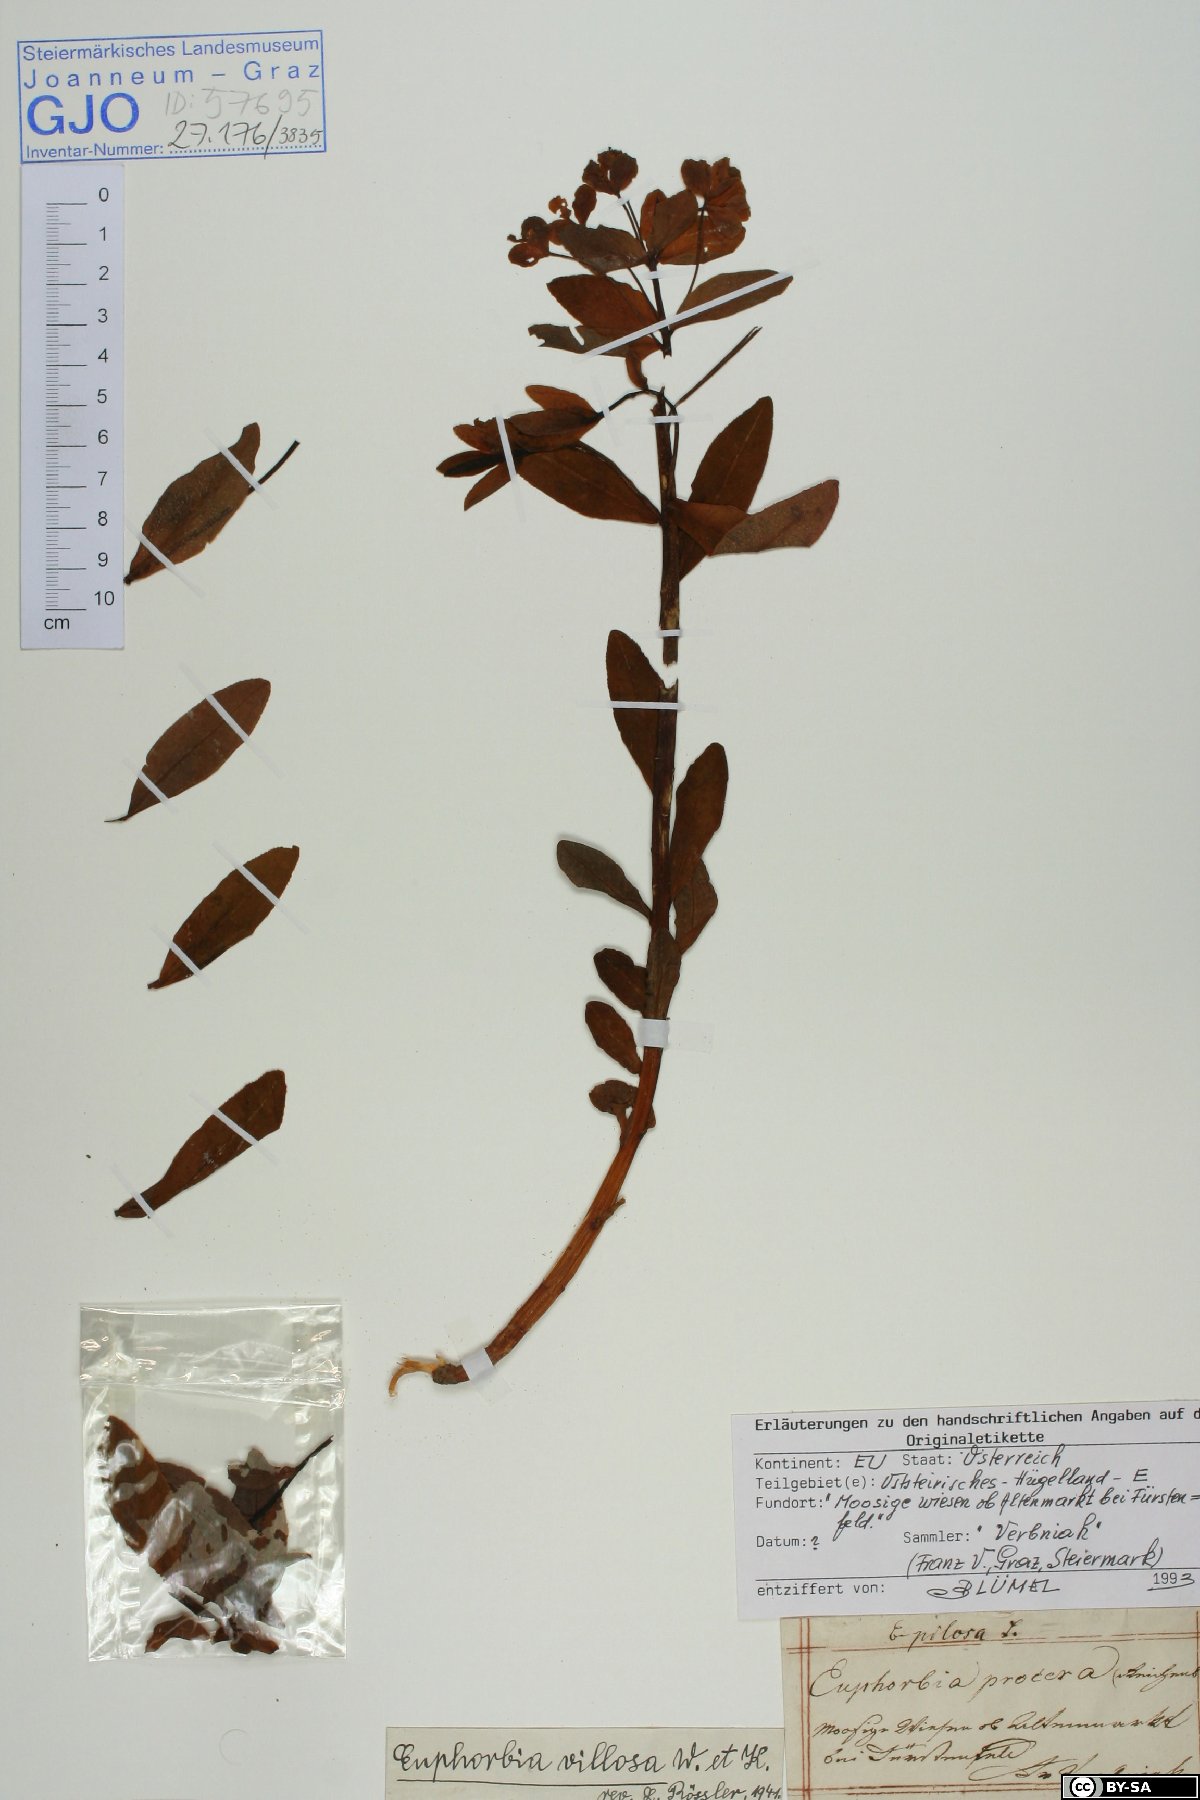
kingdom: Plantae
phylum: Tracheophyta
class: Magnoliopsida
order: Malpighiales
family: Euphorbiaceae
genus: Euphorbia
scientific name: Euphorbia illirica
